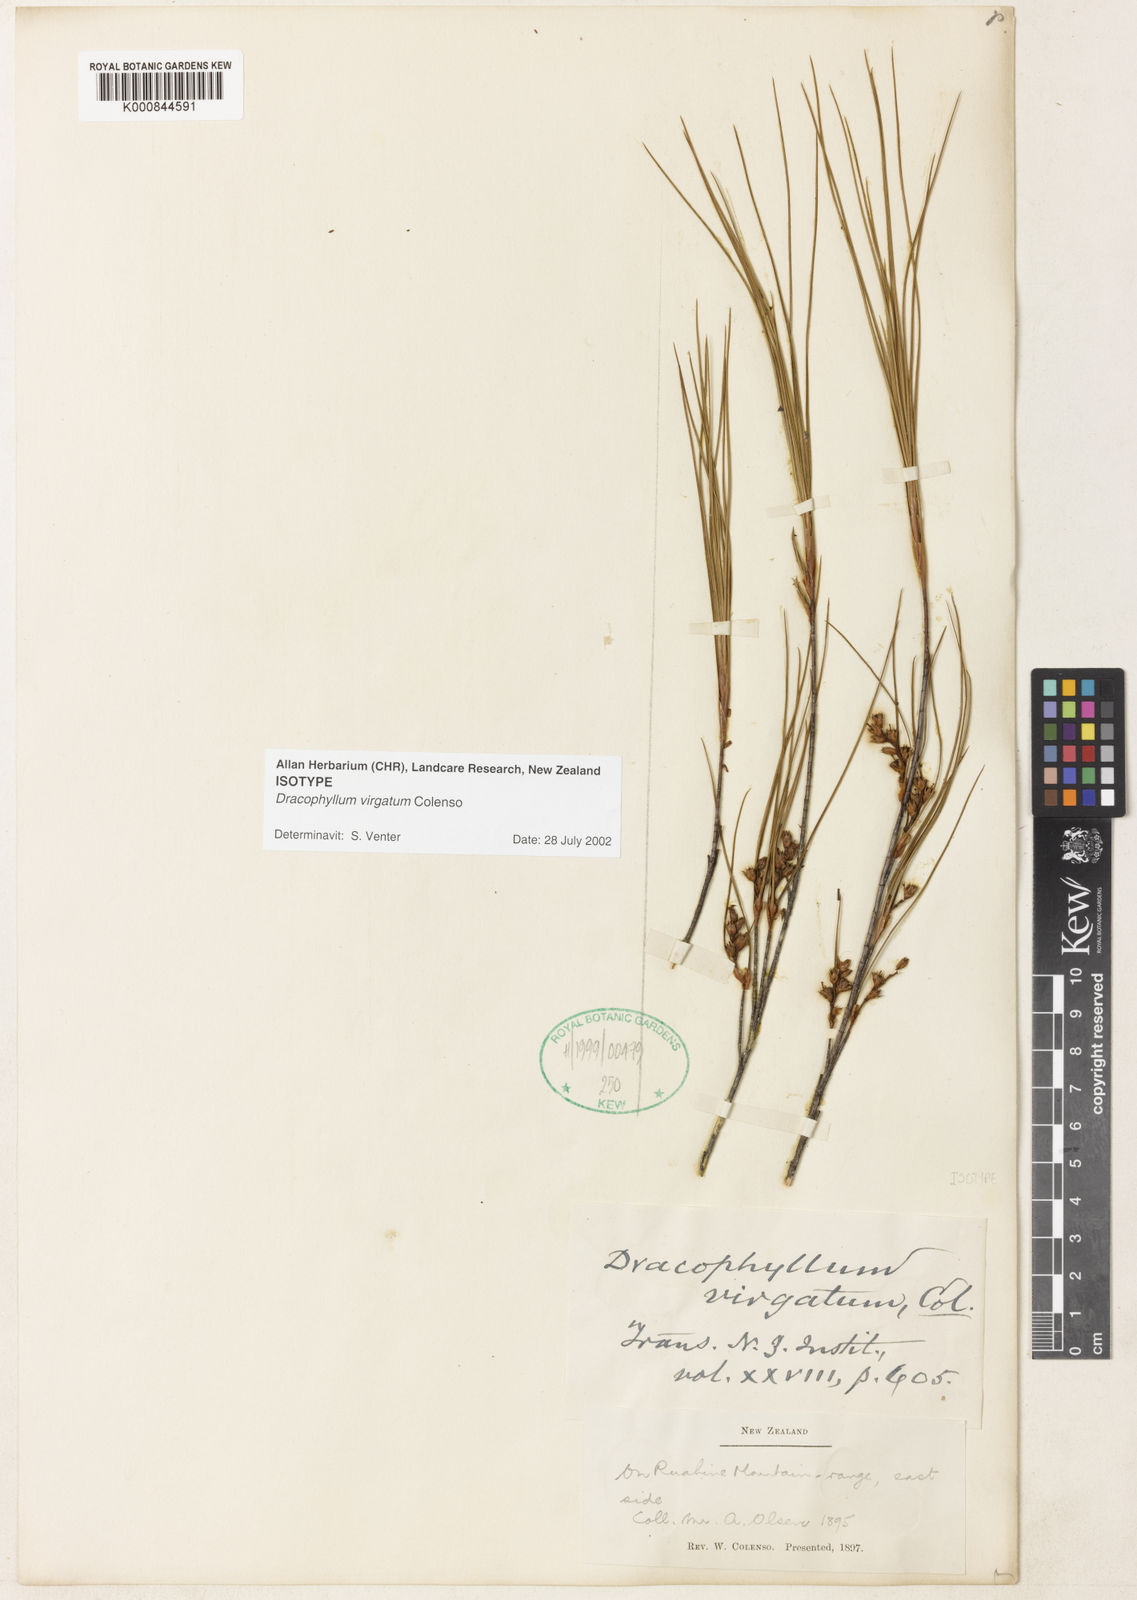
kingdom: Plantae
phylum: Tracheophyta
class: Magnoliopsida
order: Ericales
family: Ericaceae
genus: Dracophyllum
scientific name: Dracophyllum filifolium
